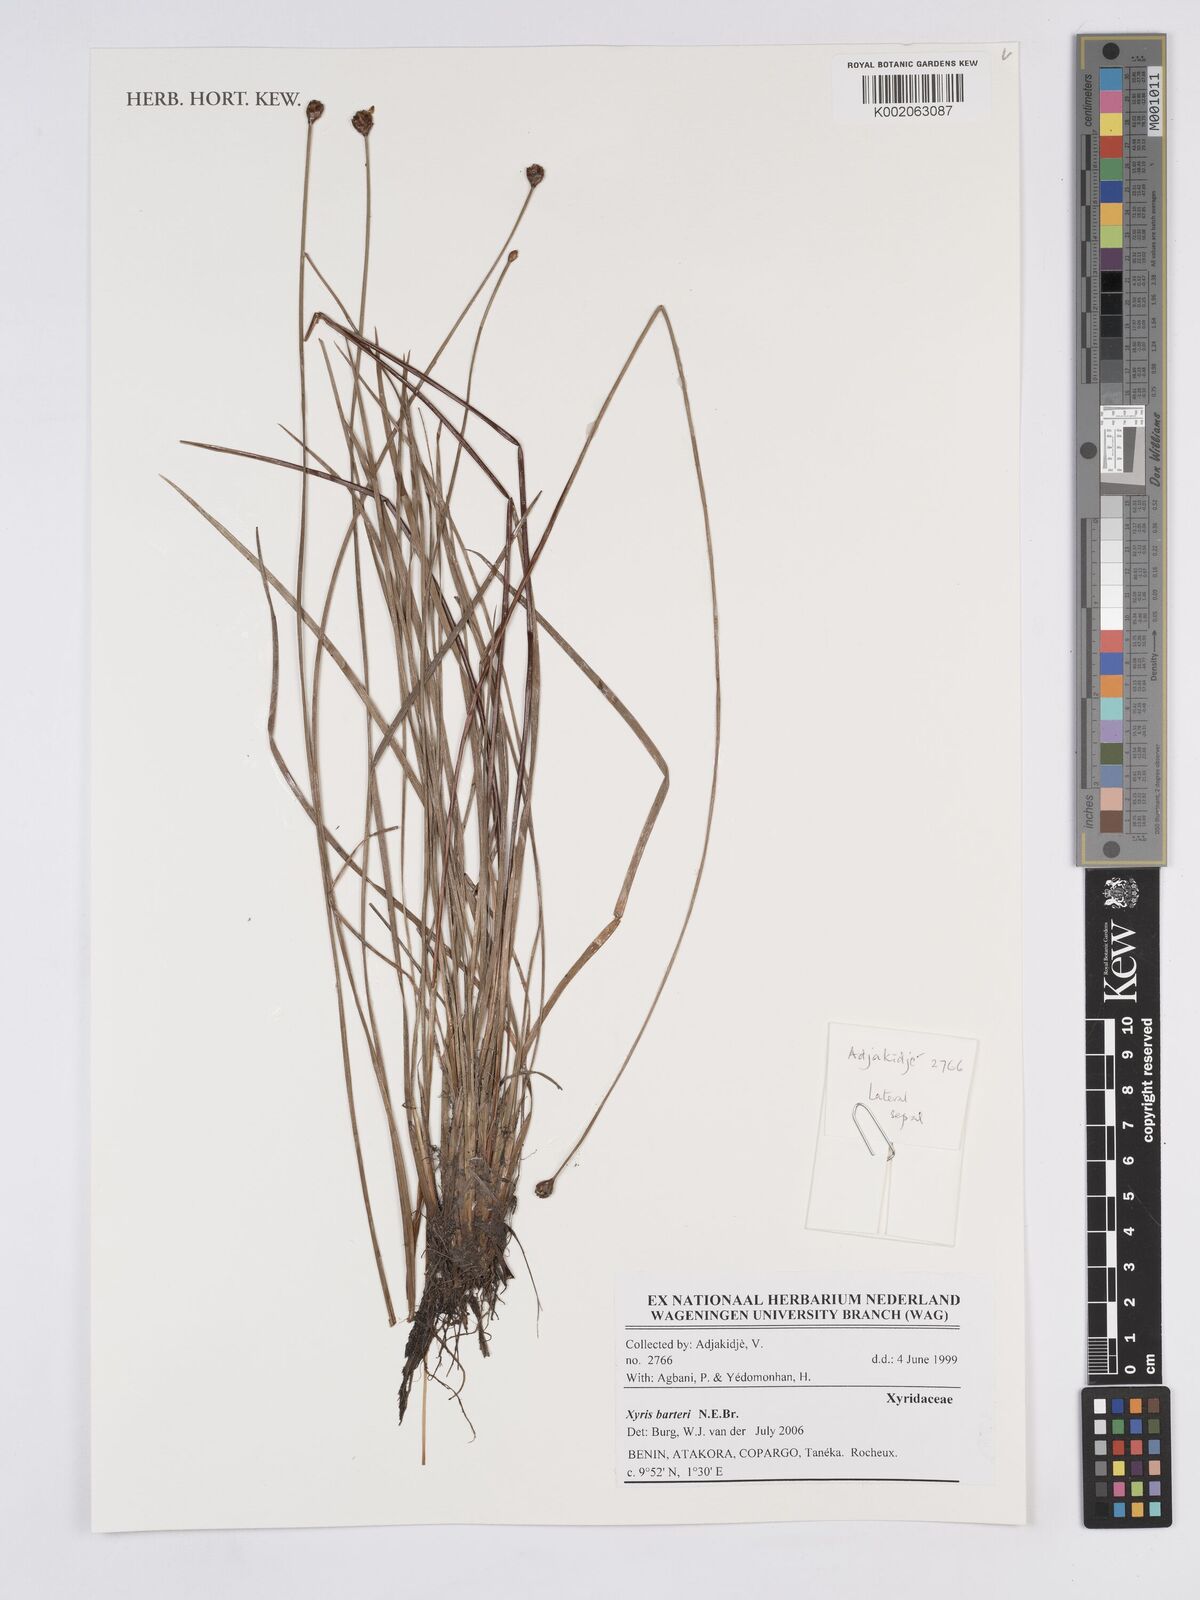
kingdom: Plantae
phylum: Tracheophyta
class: Liliopsida
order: Poales
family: Xyridaceae
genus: Xyris
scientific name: Xyris barteri
